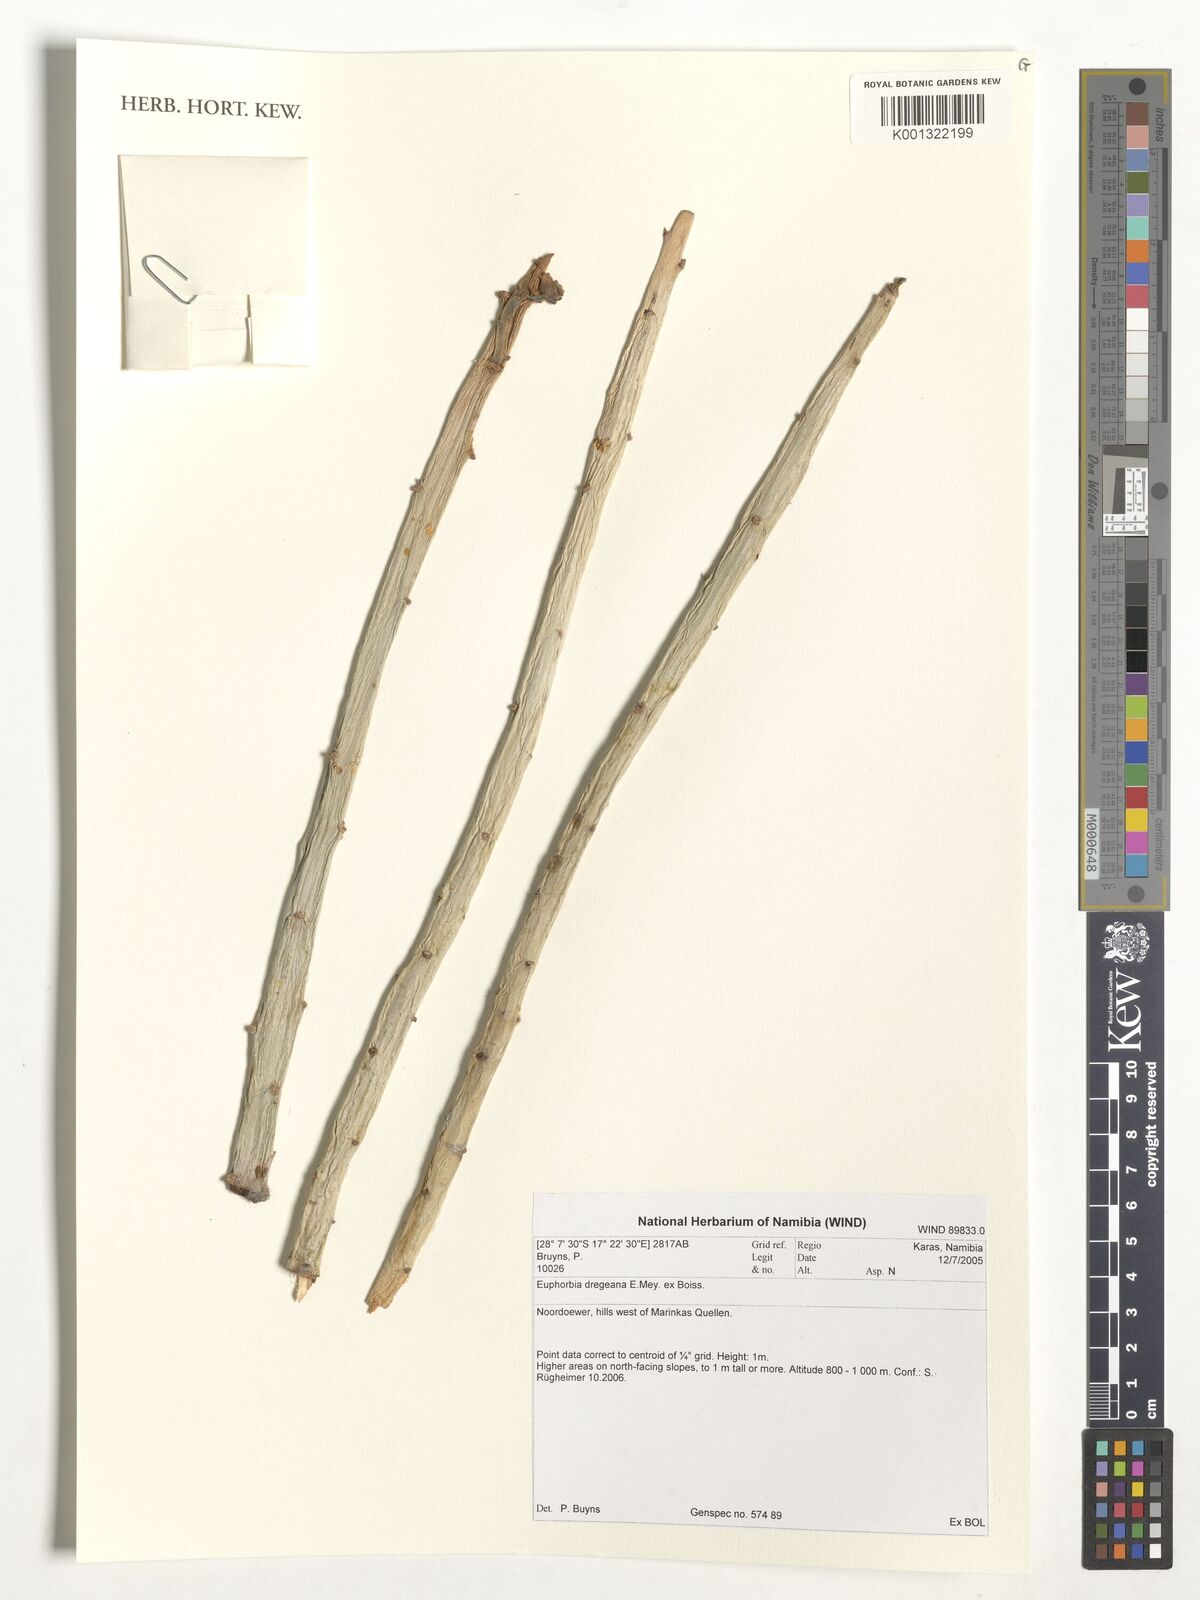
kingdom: Plantae
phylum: Tracheophyta
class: Magnoliopsida
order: Malpighiales
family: Euphorbiaceae
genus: Euphorbia
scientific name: Euphorbia dregeana
